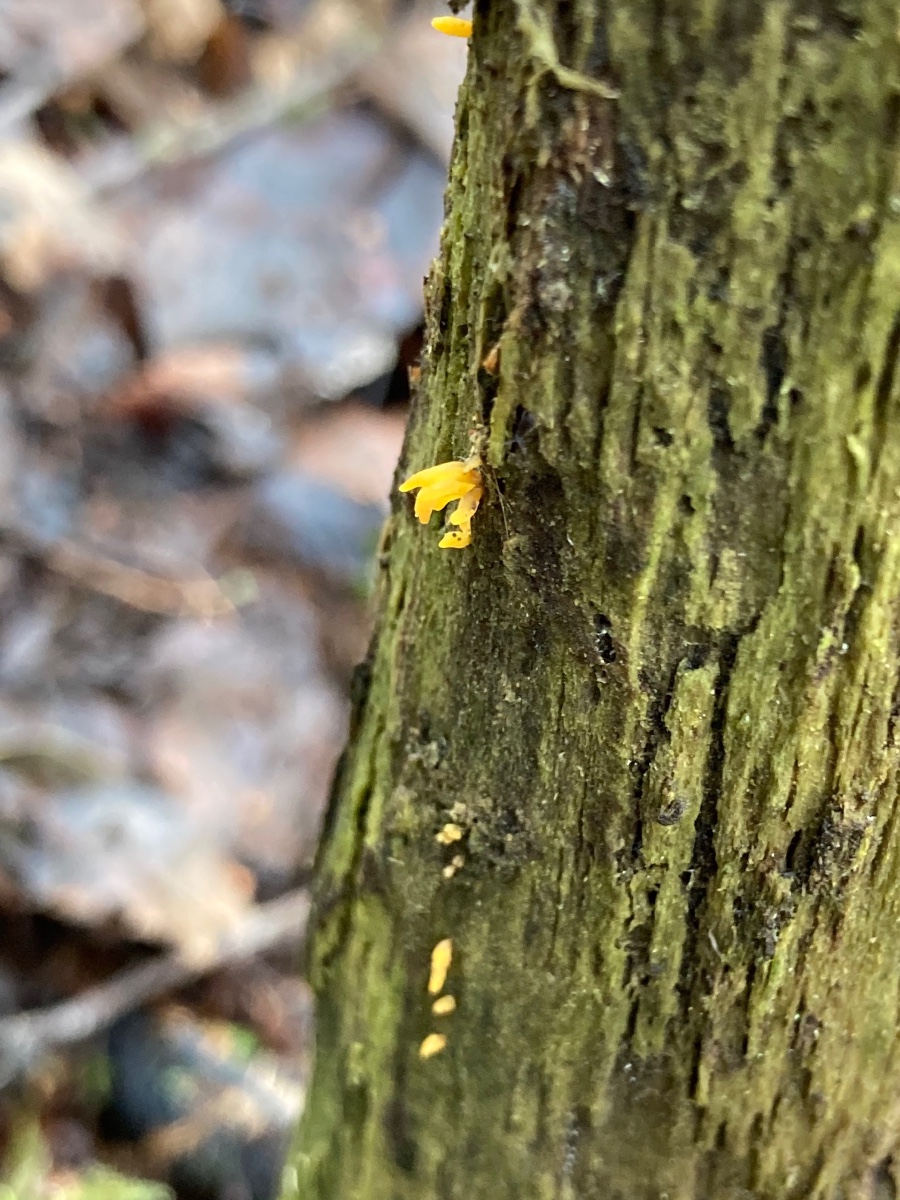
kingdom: Fungi
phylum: Basidiomycota
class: Dacrymycetes
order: Dacrymycetales
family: Dacrymycetaceae
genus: Calocera
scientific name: Calocera cornea
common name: liden guldgaffel
